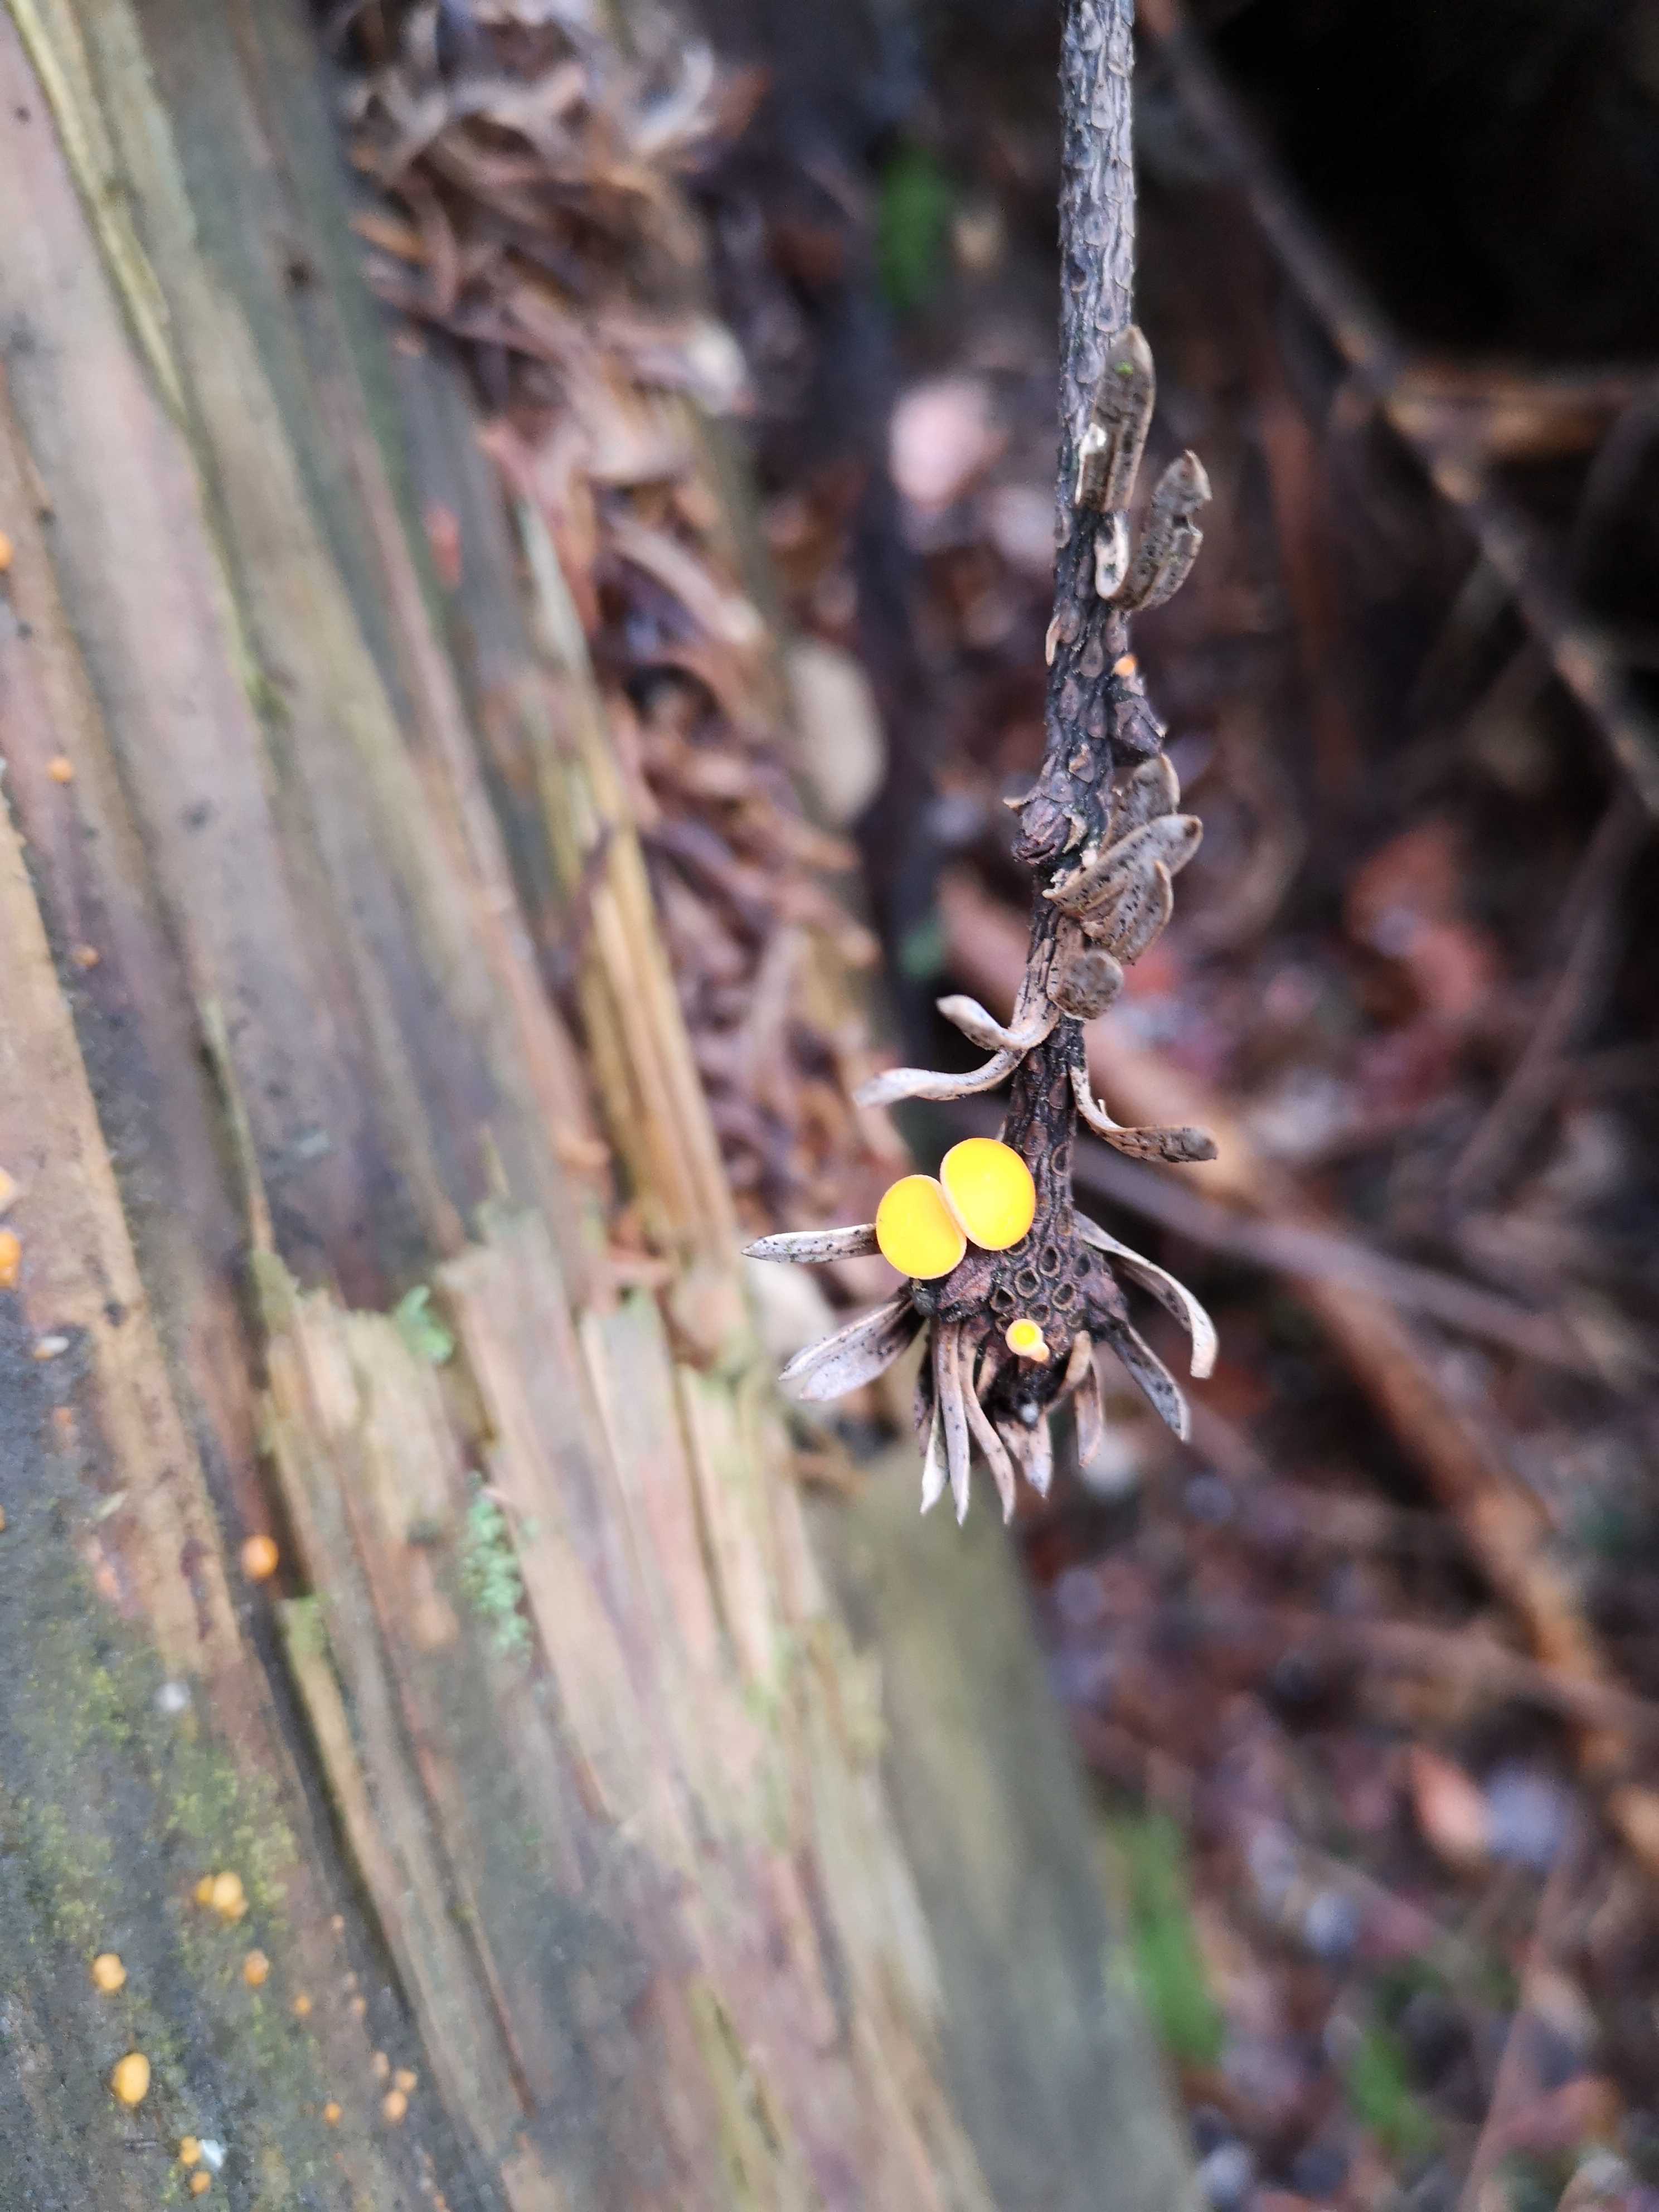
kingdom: Fungi
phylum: Ascomycota
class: Pezizomycetes
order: Pezizales
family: Sarcoscyphaceae
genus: Pithya
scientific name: Pithya vulgaris
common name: stor dukatbæger
